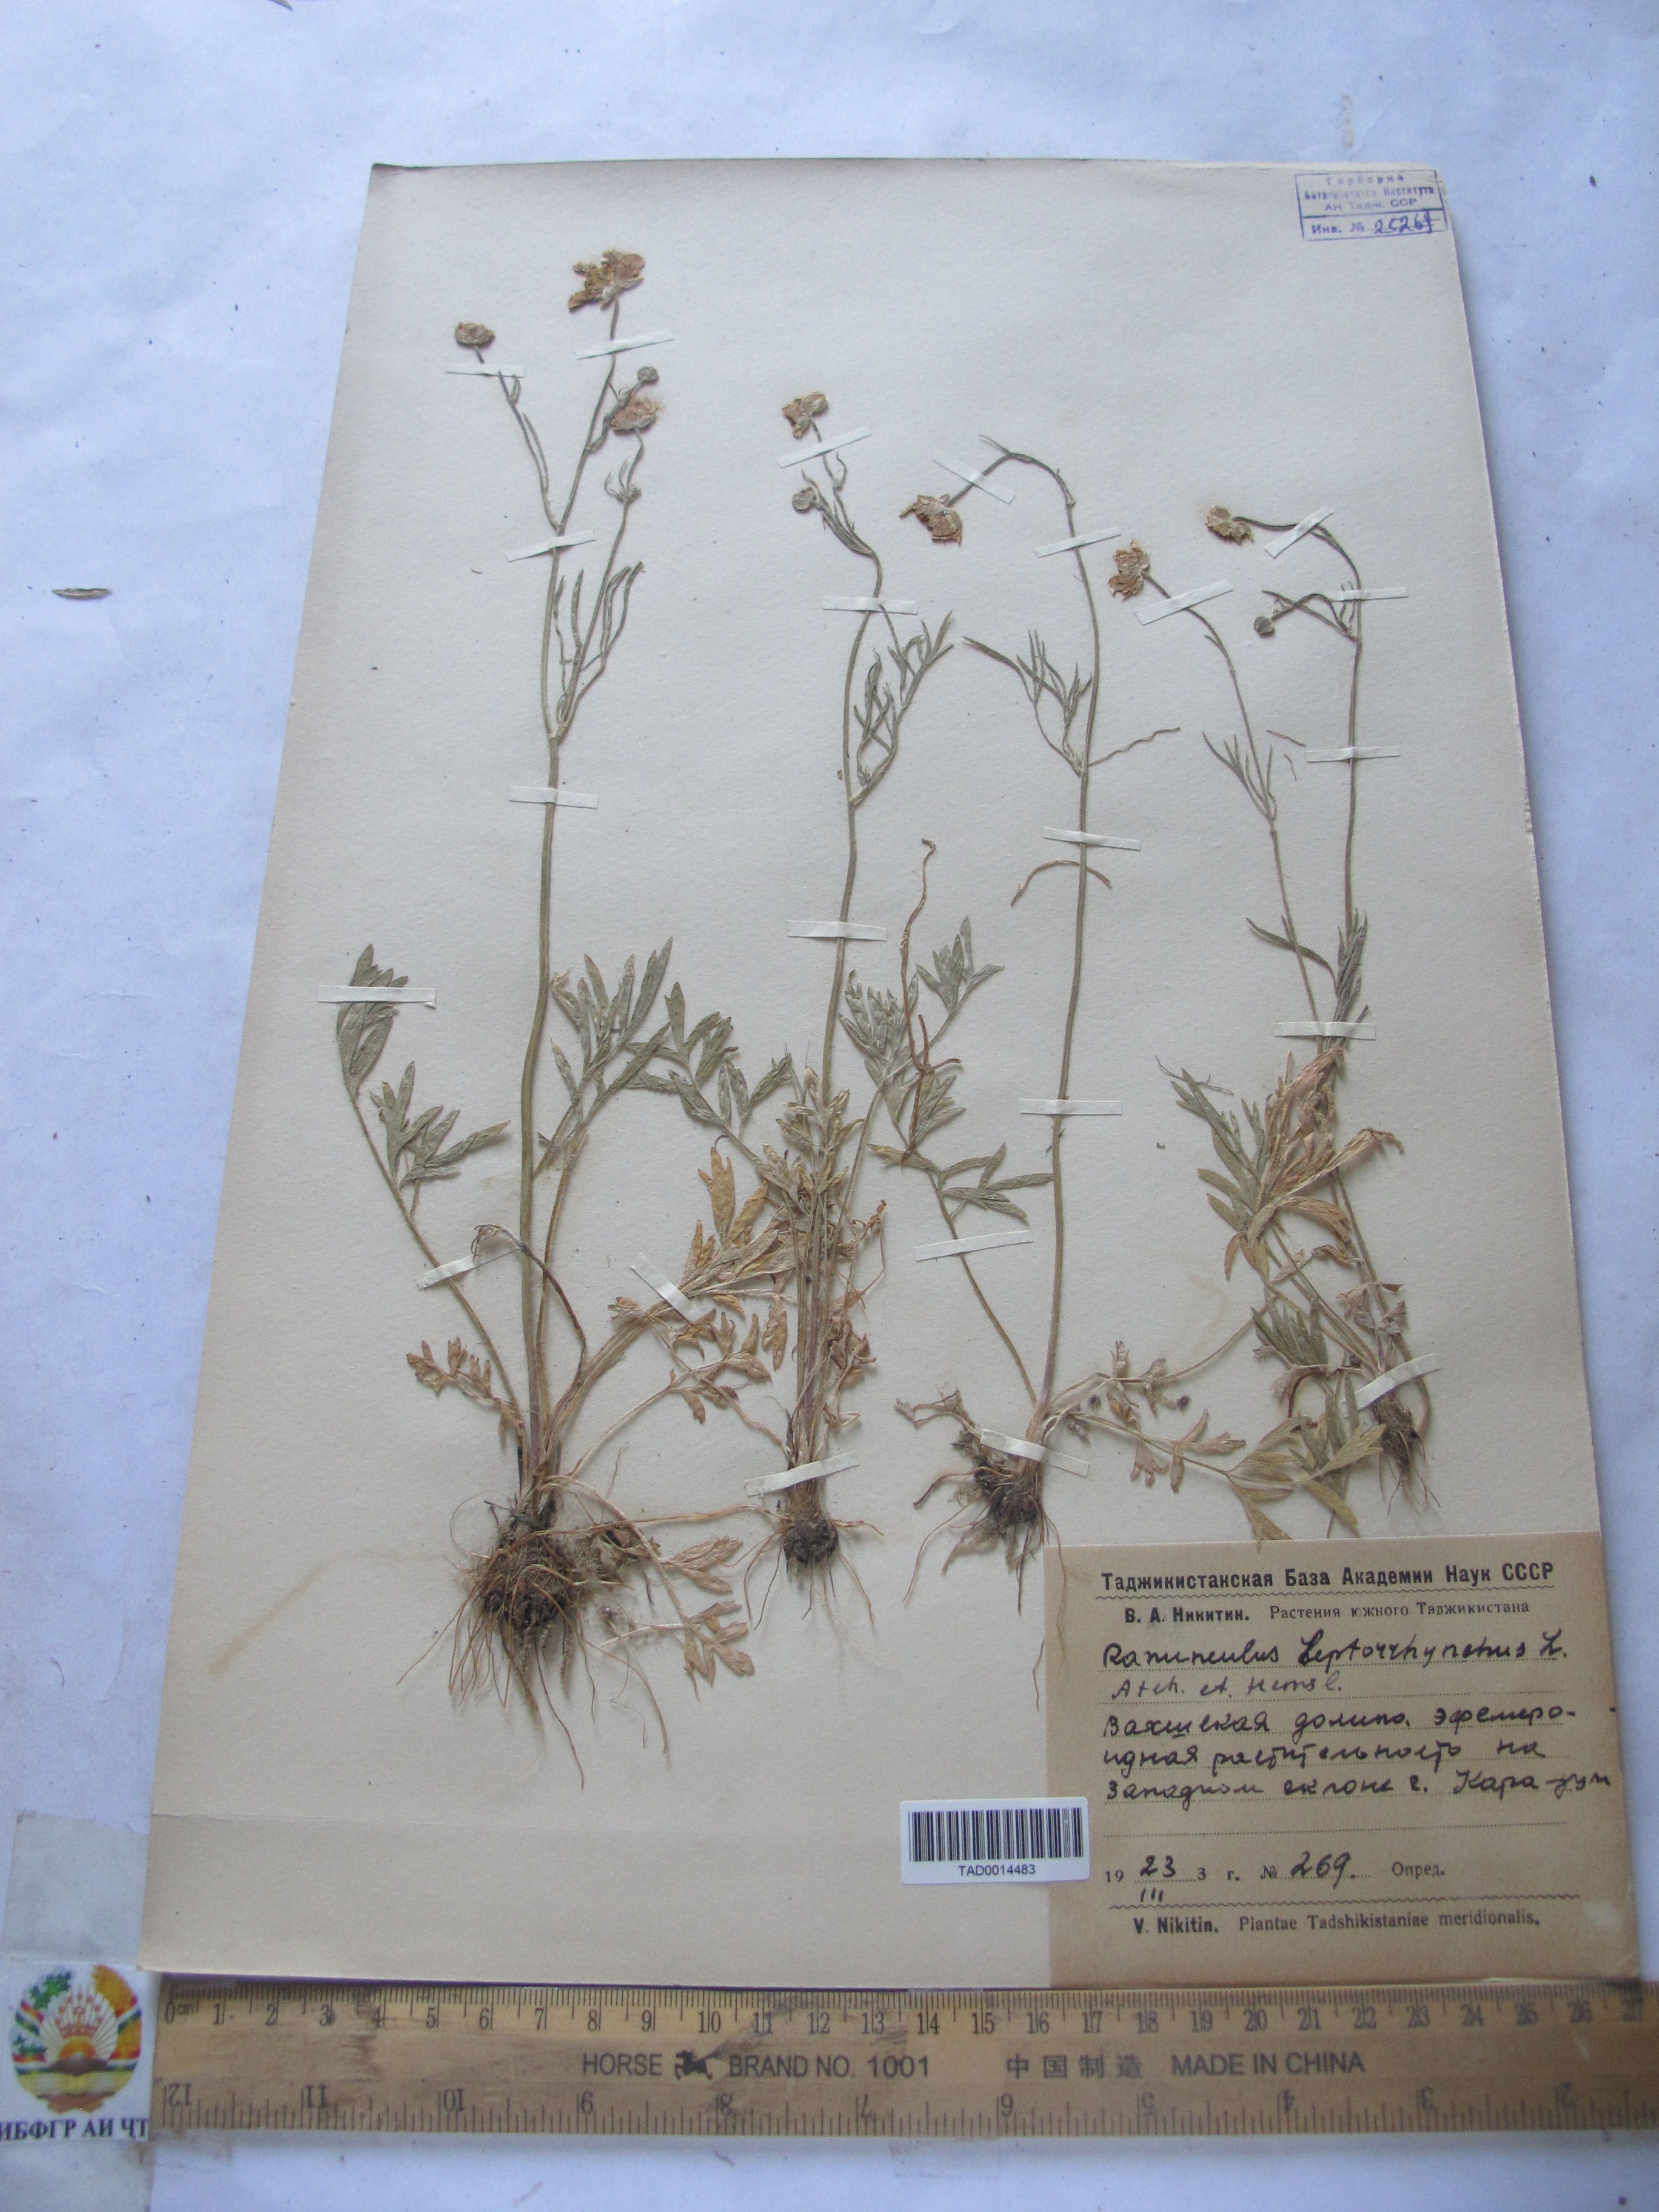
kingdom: Plantae
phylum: Tracheophyta
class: Magnoliopsida
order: Ranunculales
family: Ranunculaceae
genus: Ranunculus
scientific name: Ranunculus leptorrhynchus
